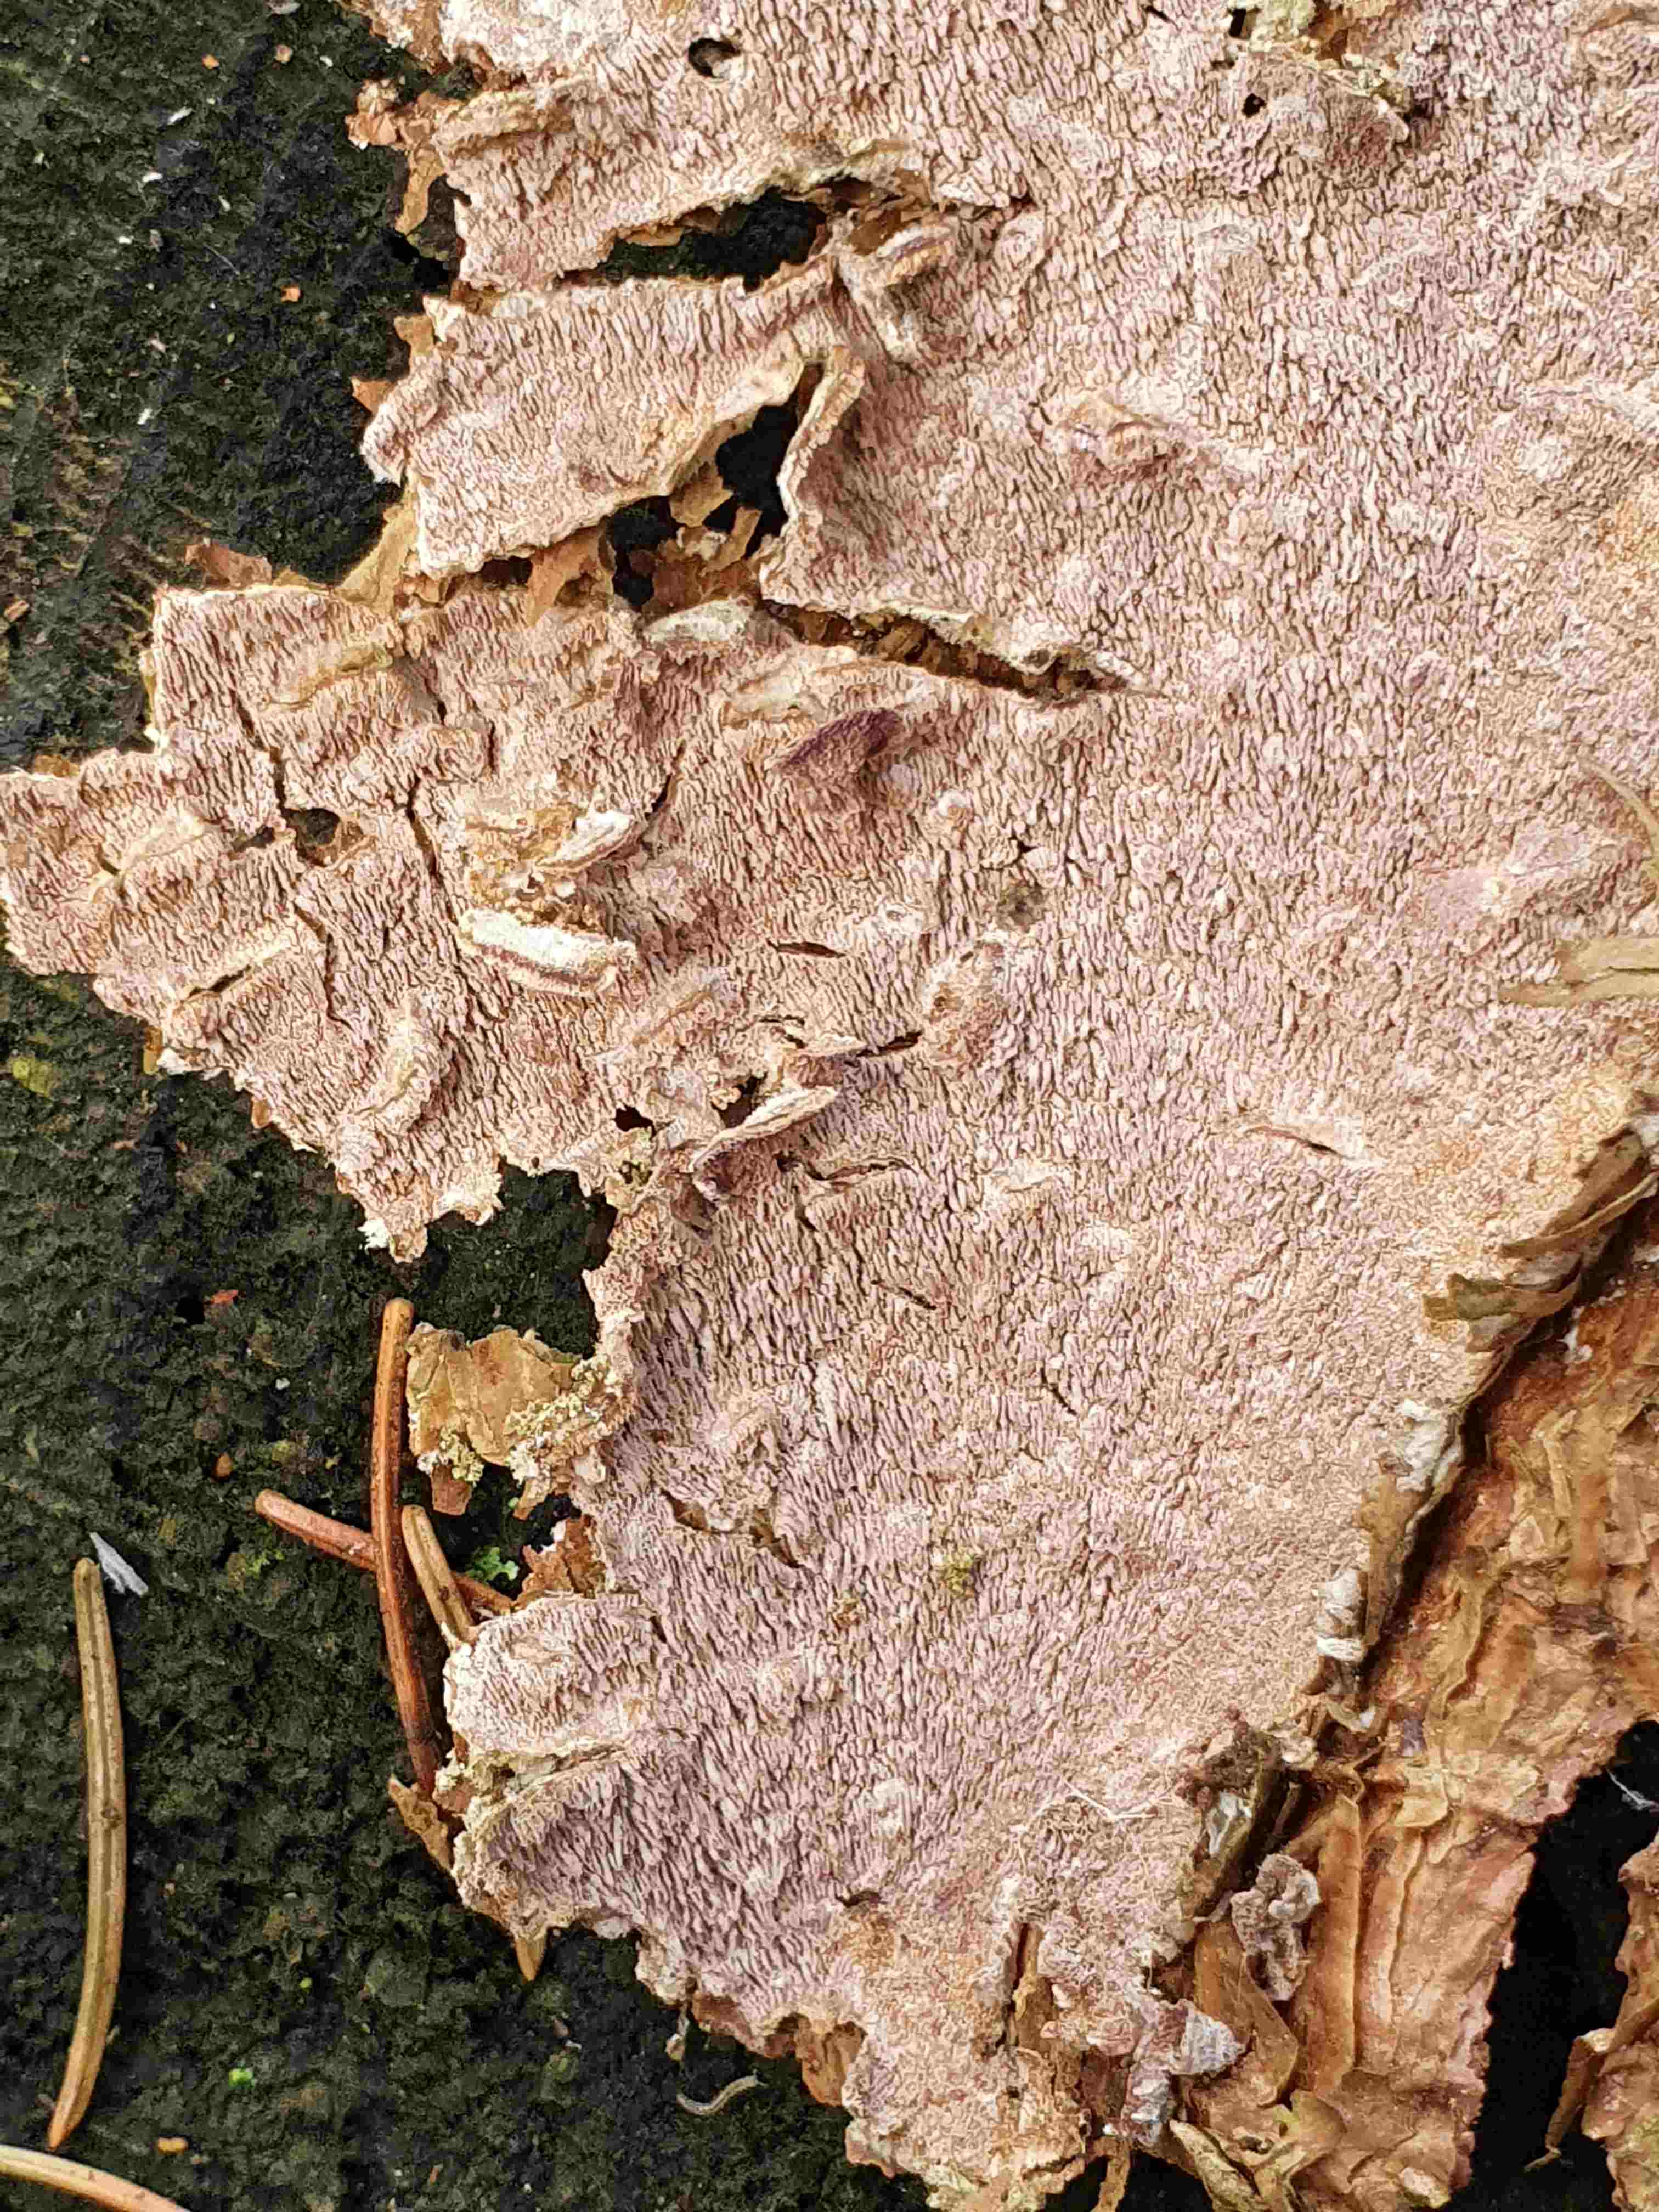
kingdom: Fungi
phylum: Basidiomycota
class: Agaricomycetes
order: Polyporales
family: Polyporaceae
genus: Trichaptum
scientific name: Trichaptum
